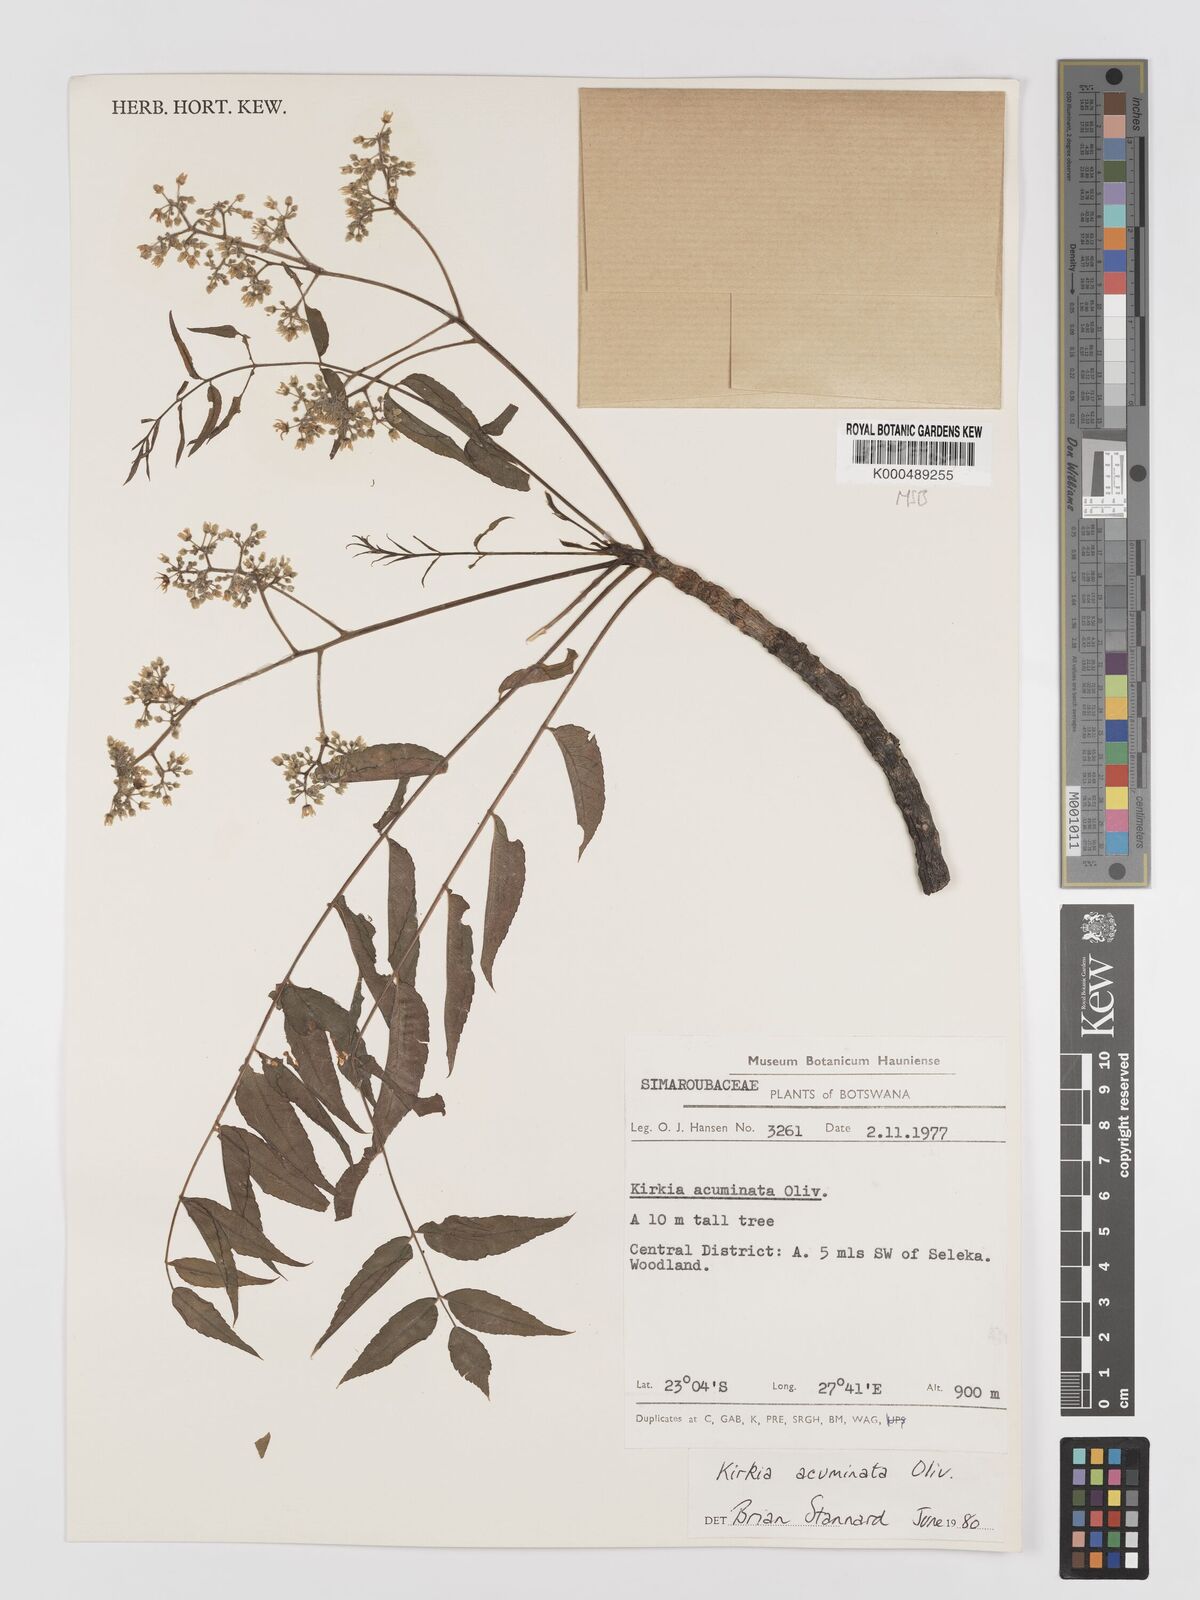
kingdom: Plantae
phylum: Tracheophyta
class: Magnoliopsida
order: Sapindales
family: Kirkiaceae
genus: Kirkia
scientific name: Kirkia acuminata
